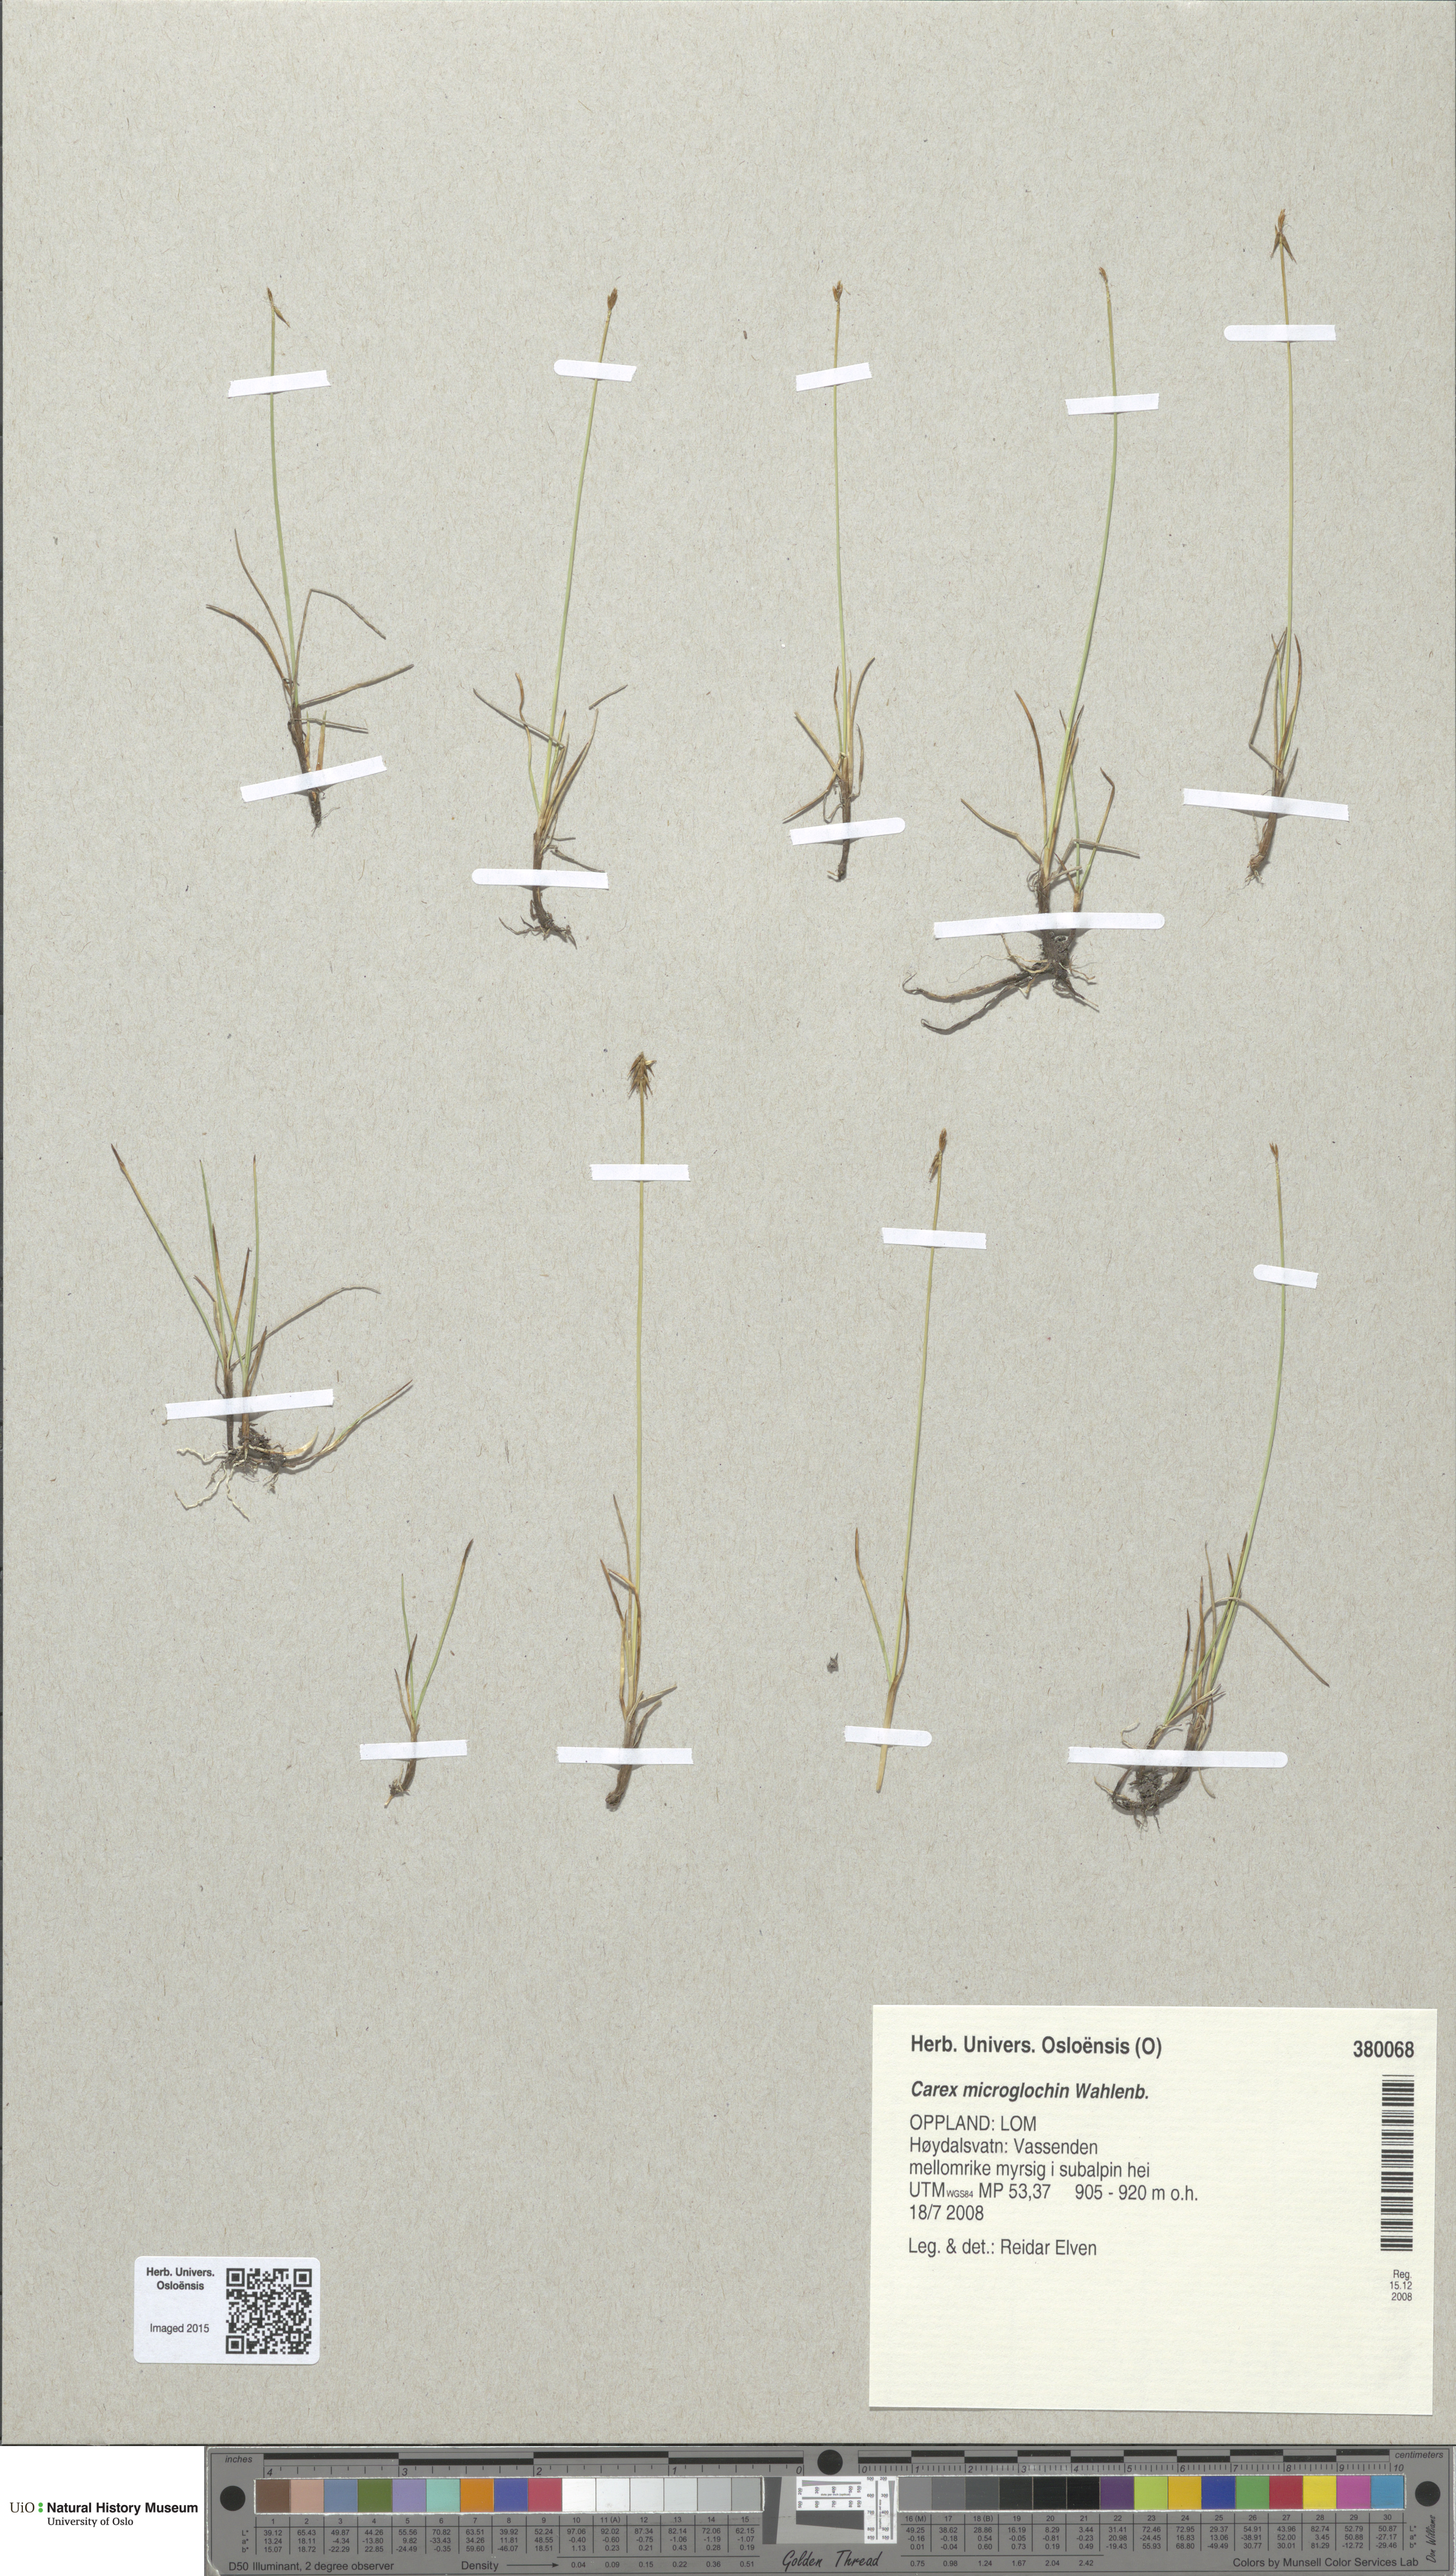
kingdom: Plantae
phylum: Tracheophyta
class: Liliopsida
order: Poales
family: Cyperaceae
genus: Carex
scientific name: Carex microglochin
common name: Bristle sedge
